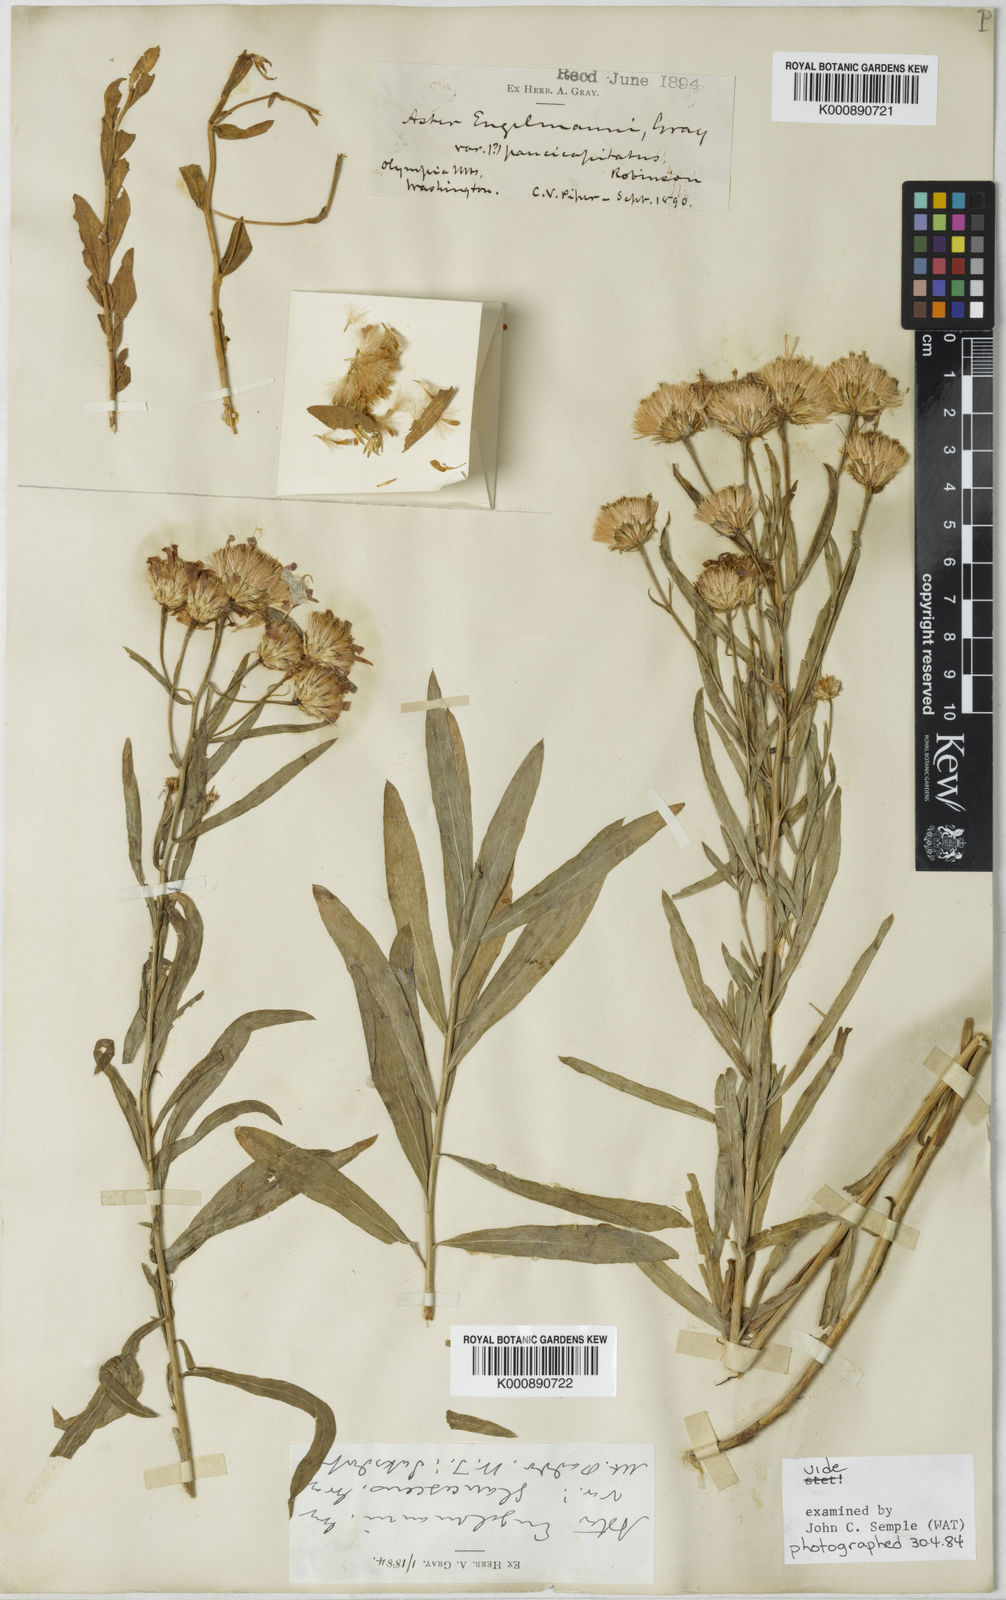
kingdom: Plantae
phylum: Tracheophyta
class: Magnoliopsida
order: Asterales
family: Asteraceae
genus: Eucephalus
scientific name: Eucephalus glaucescens
